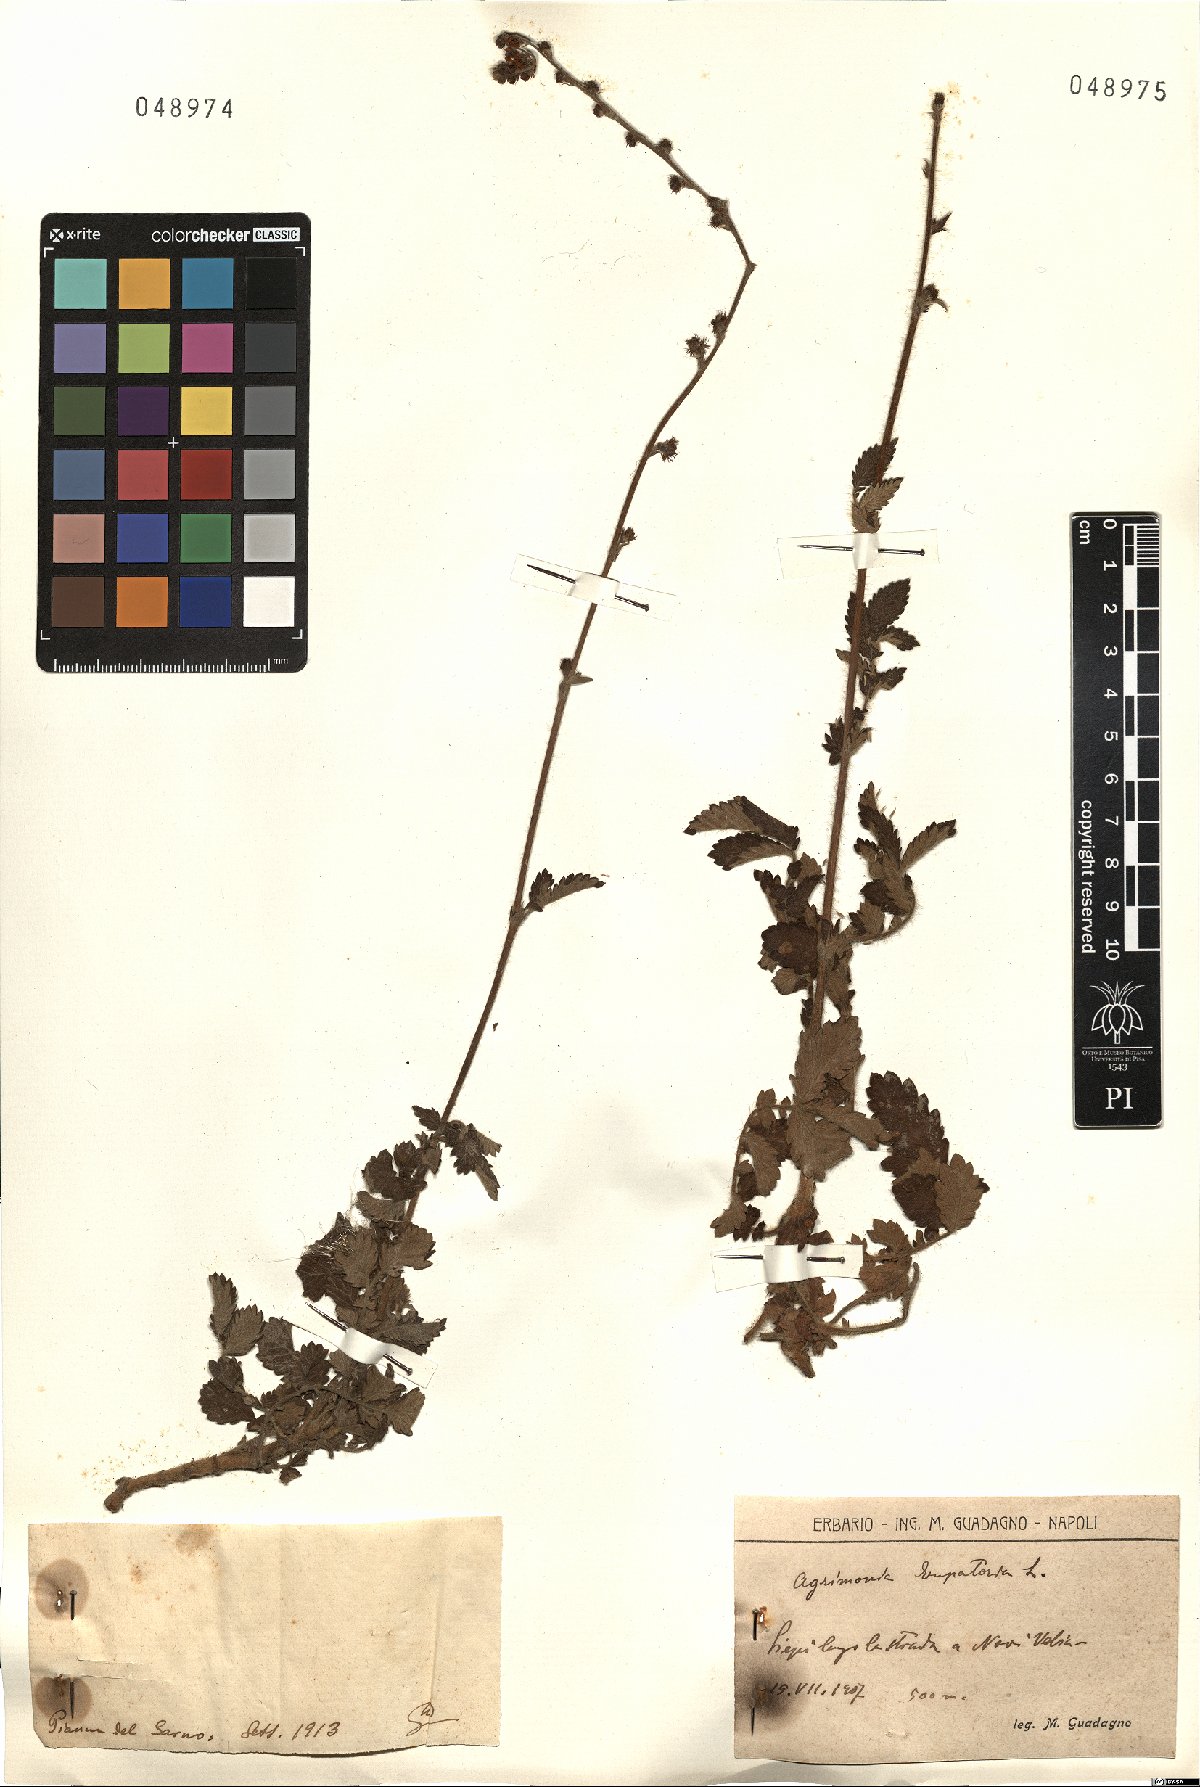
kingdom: Plantae
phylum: Tracheophyta
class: Magnoliopsida
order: Rosales
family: Rosaceae
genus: Agrimonia
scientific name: Agrimonia
